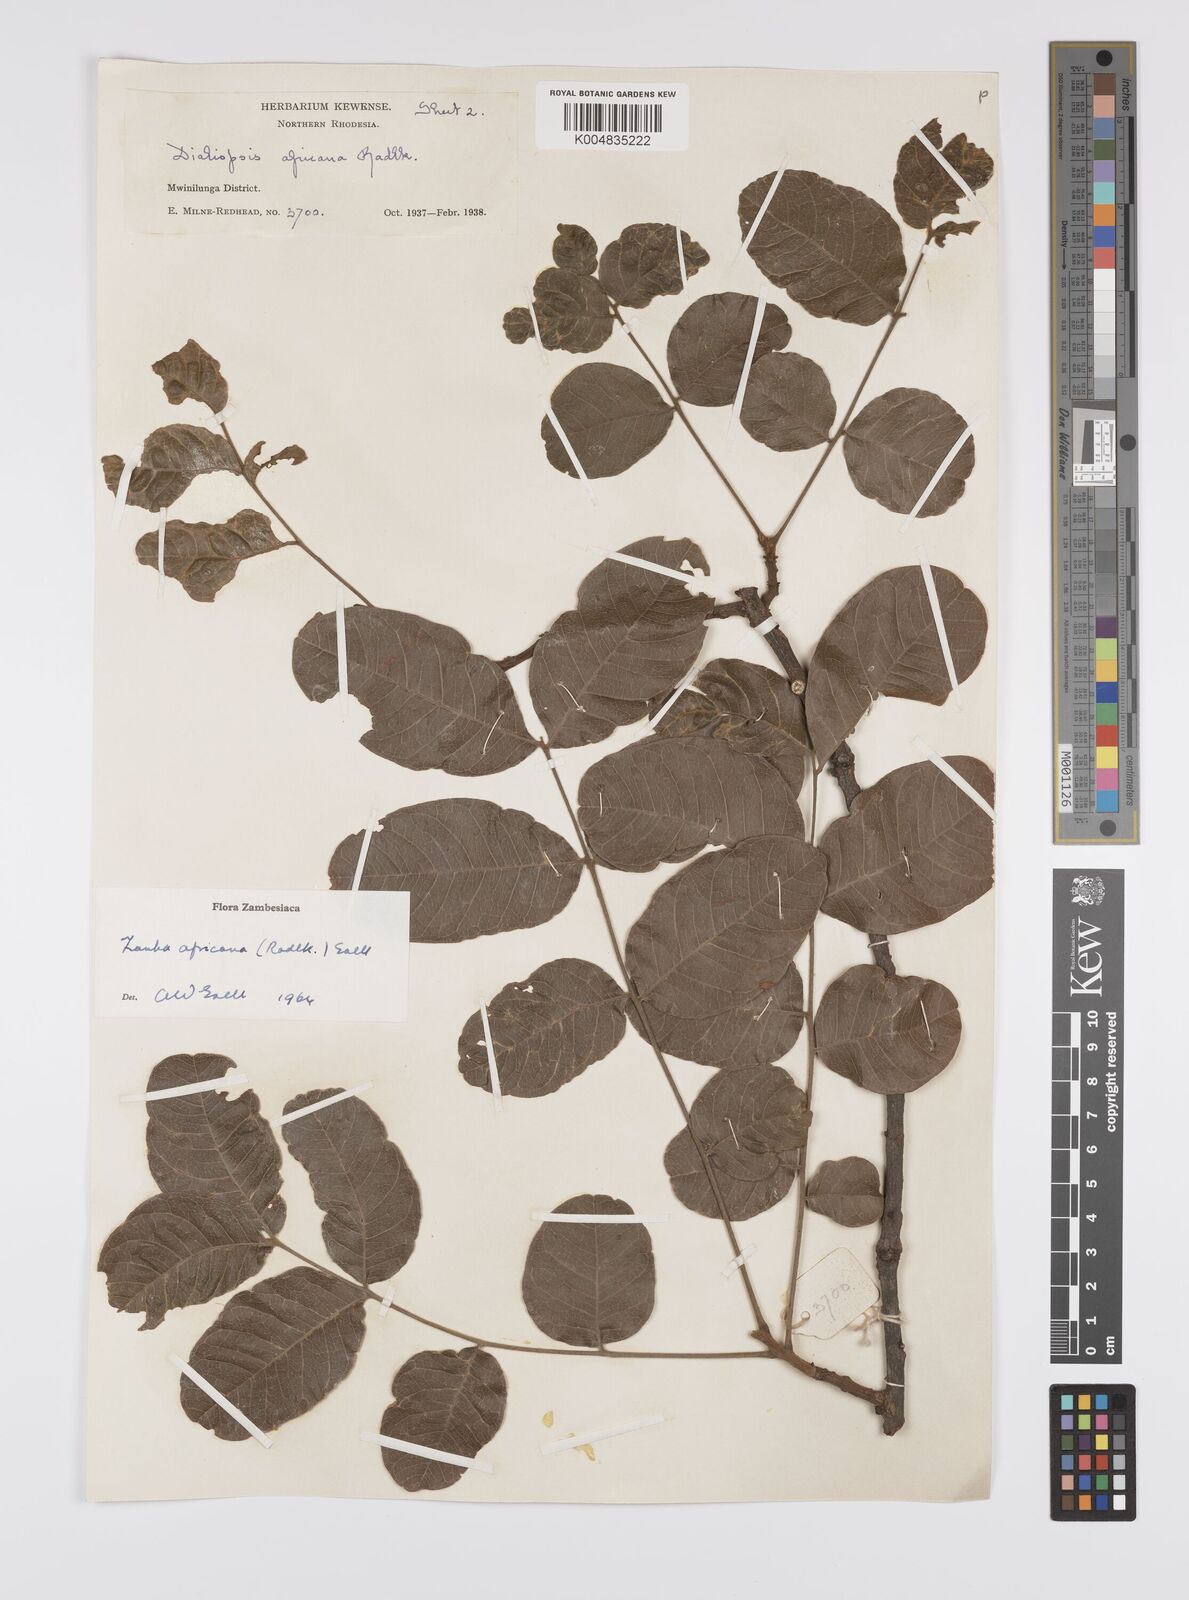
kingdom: Plantae
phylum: Tracheophyta
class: Magnoliopsida
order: Sapindales
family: Sapindaceae
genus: Zanha
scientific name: Zanha africana
